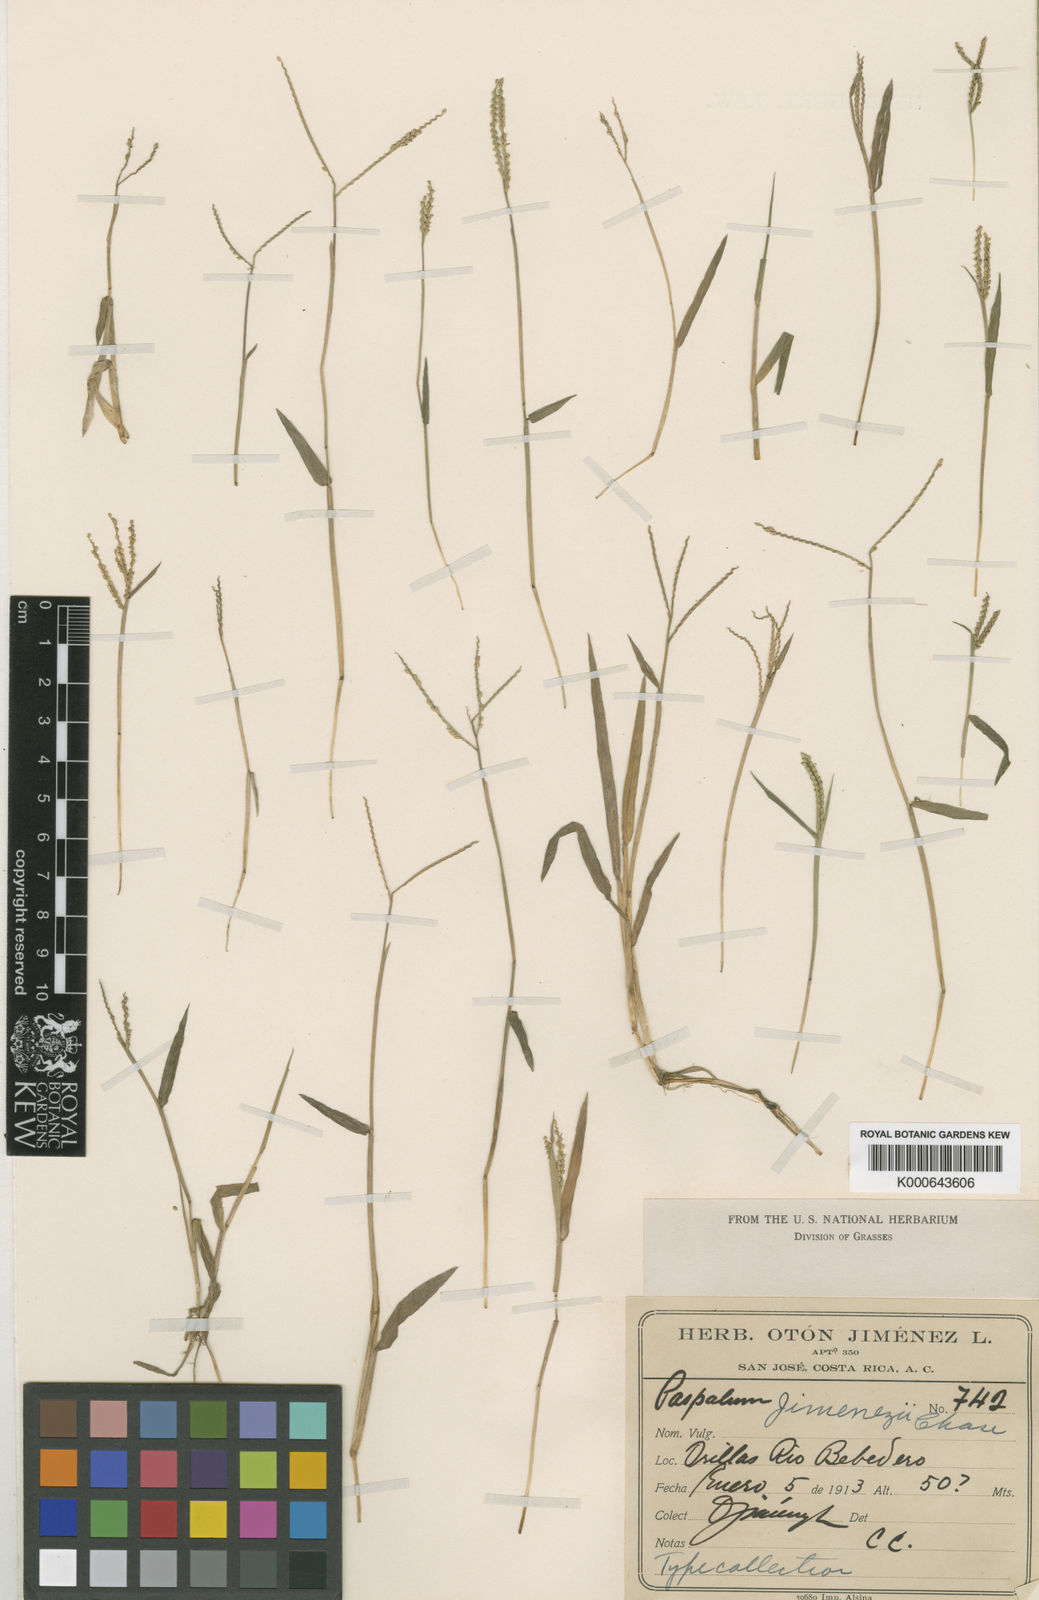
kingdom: Plantae
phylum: Tracheophyta
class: Liliopsida
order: Poales
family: Poaceae
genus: Paspalum
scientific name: Paspalum jimenezii
